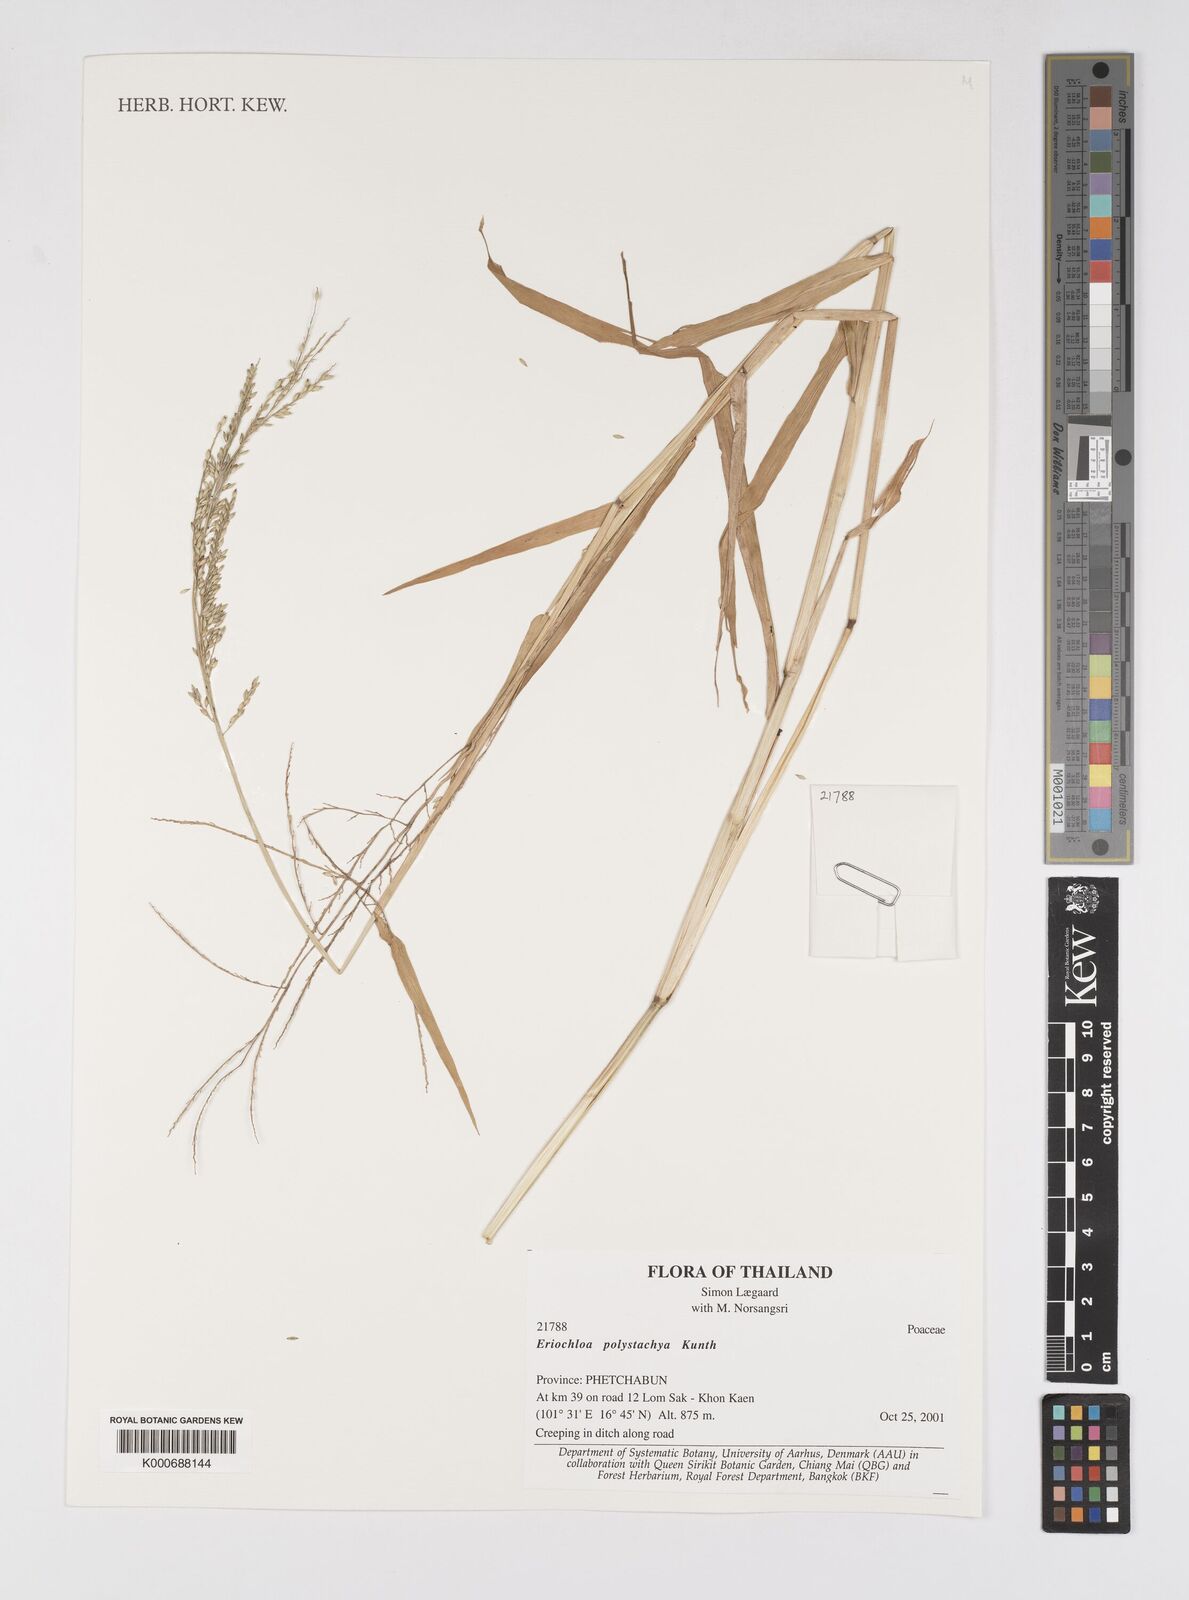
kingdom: Plantae
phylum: Tracheophyta
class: Liliopsida
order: Poales
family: Poaceae
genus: Urochloa
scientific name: Urochloa polystachya
